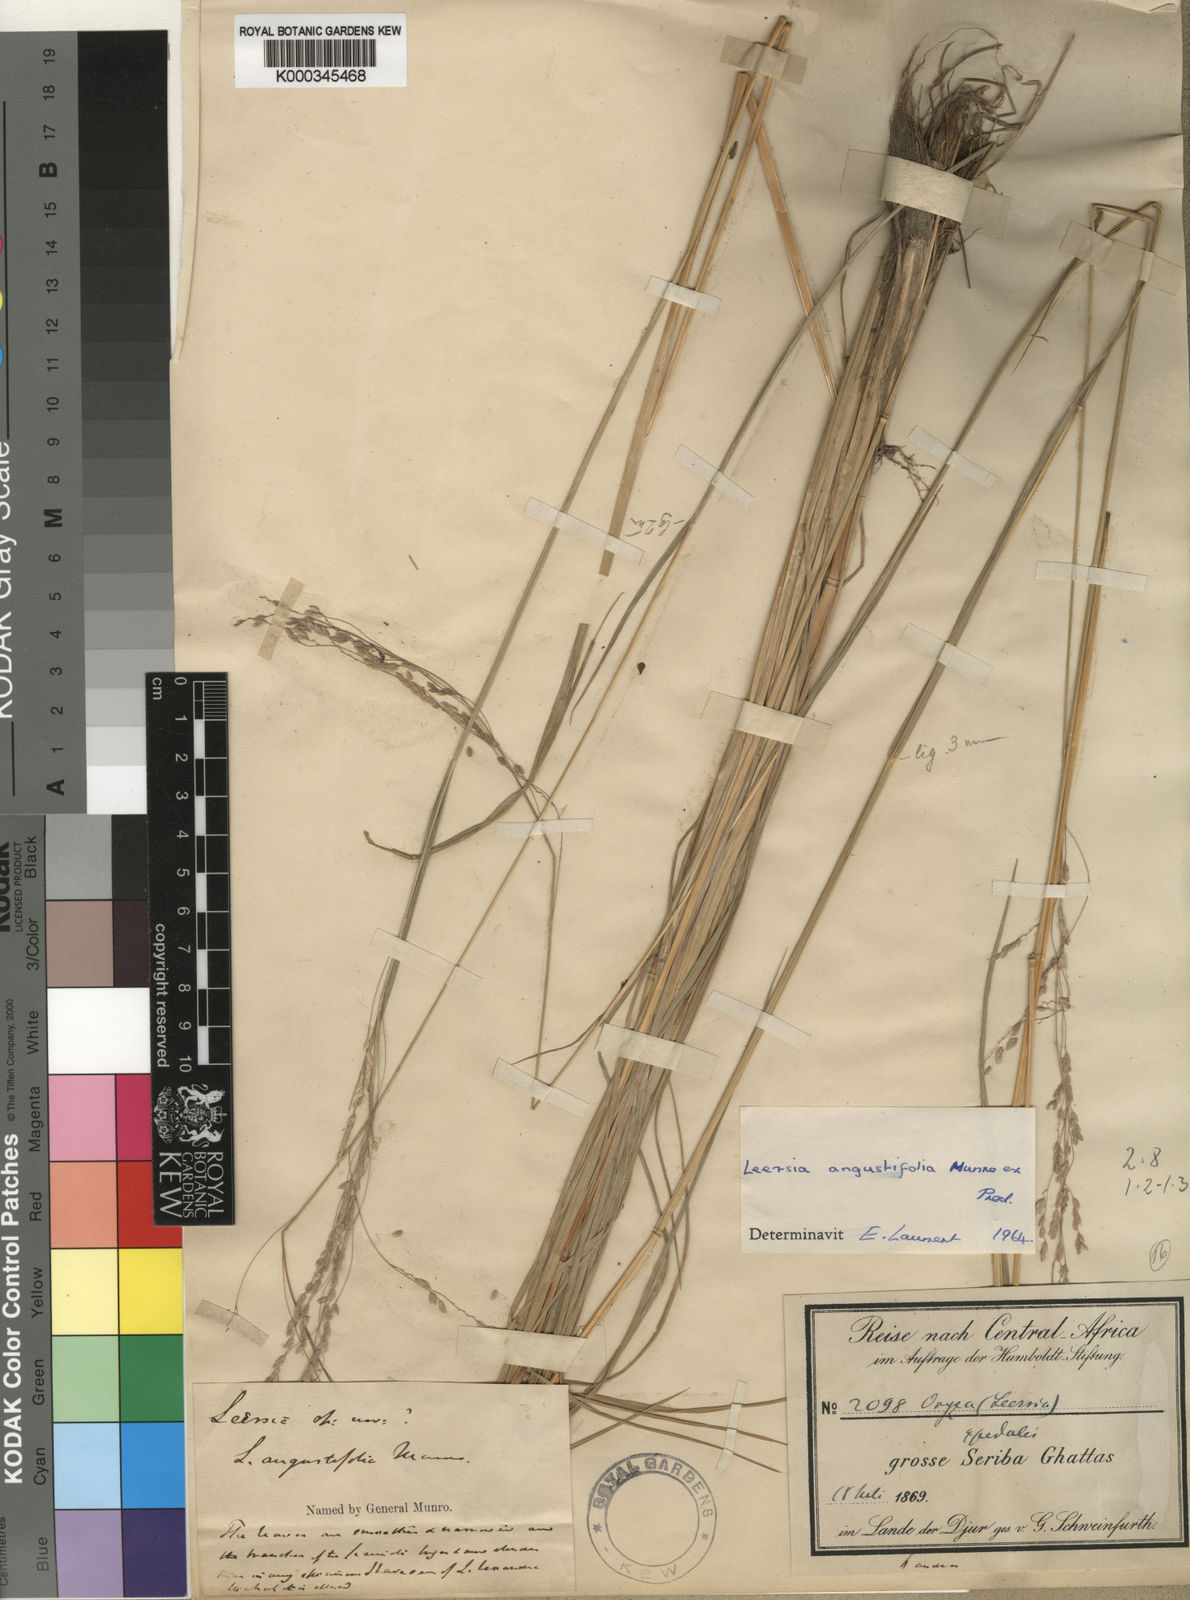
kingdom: Plantae
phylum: Tracheophyta
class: Liliopsida
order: Poales
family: Poaceae
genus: Leersia
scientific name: Leersia angustifolia
